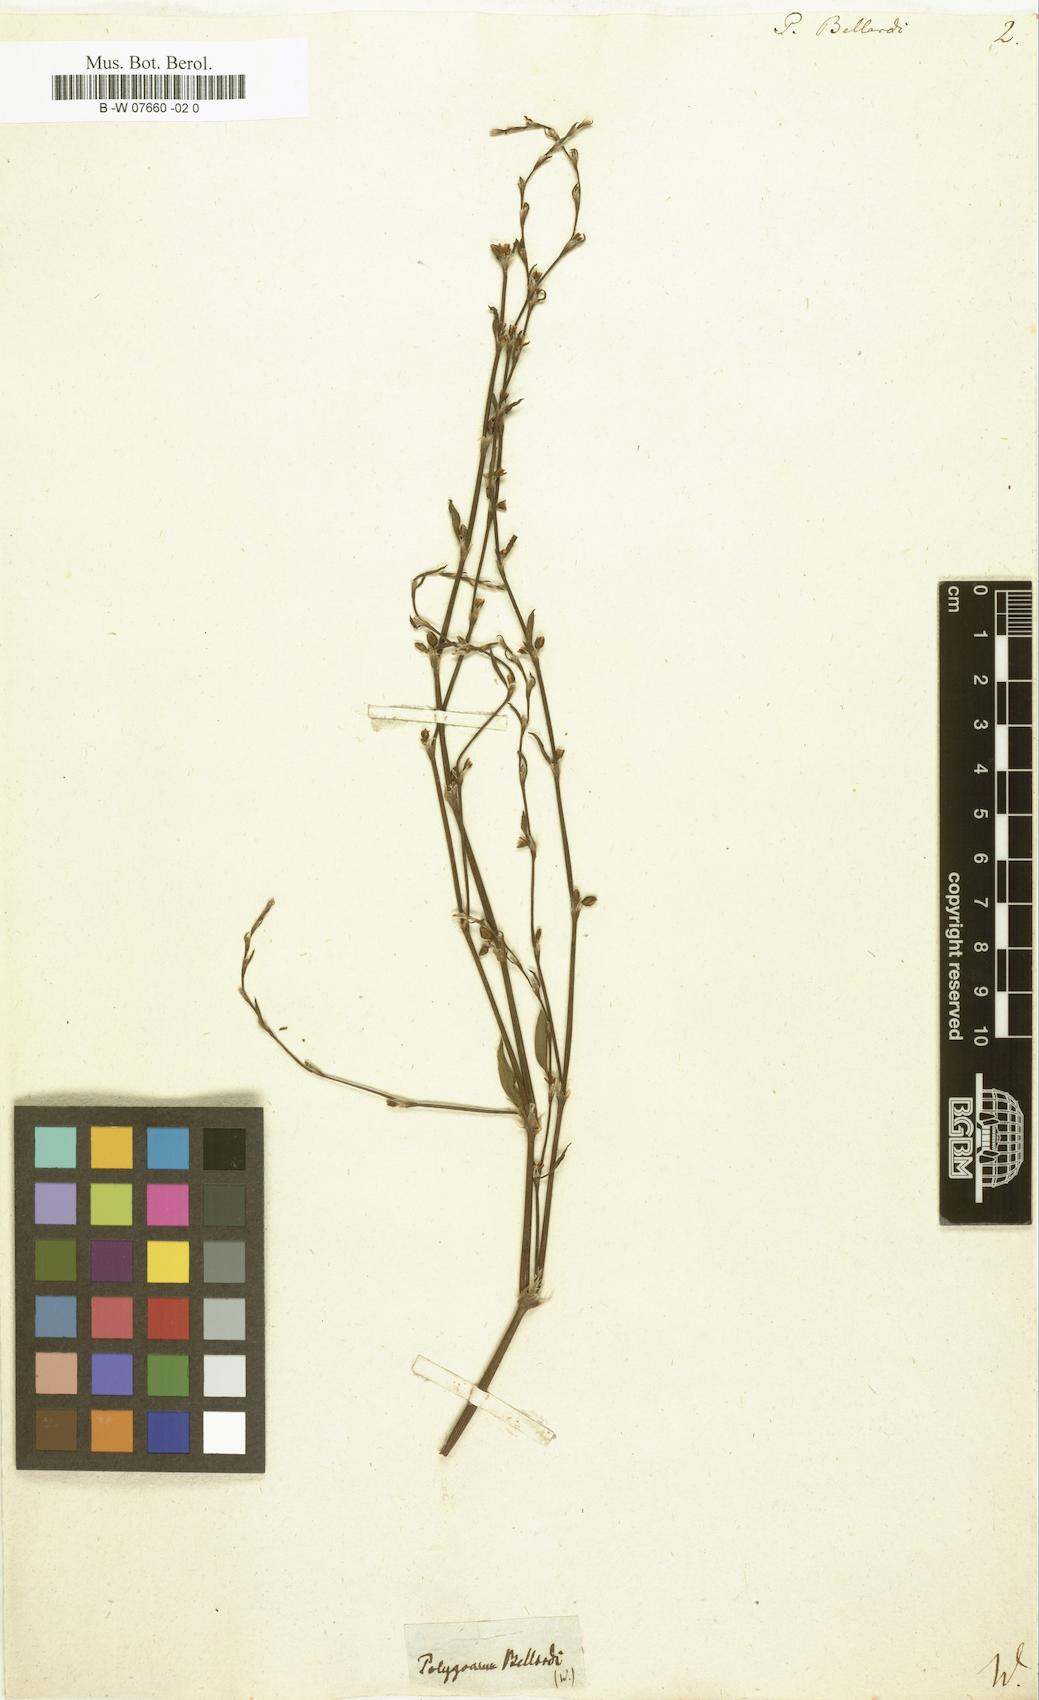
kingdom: Plantae
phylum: Tracheophyta
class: Magnoliopsida
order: Caryophyllales
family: Polygonaceae
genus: Polygonum
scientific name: Polygonum bellardii
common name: Narrowleaf knotweed
